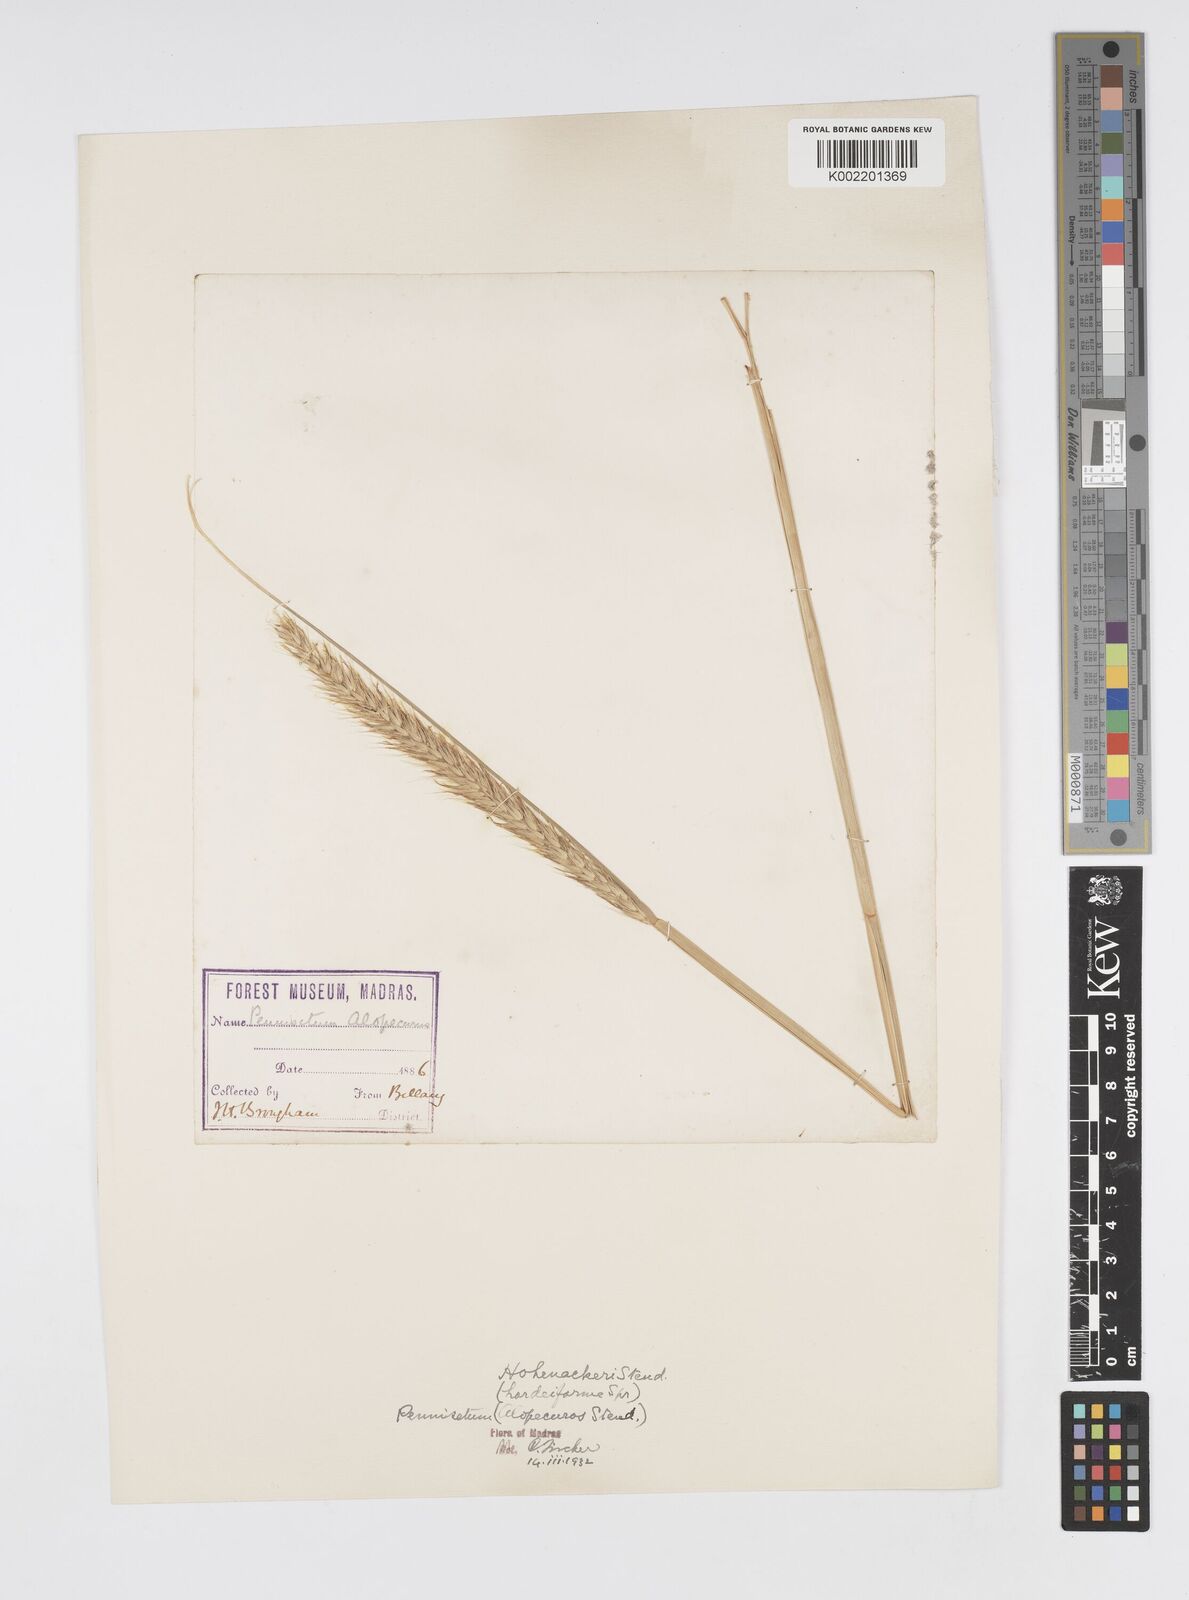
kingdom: Plantae
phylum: Tracheophyta
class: Liliopsida
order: Poales
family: Poaceae
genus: Cenchrus
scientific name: Cenchrus hohenackeri
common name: Moya grass
